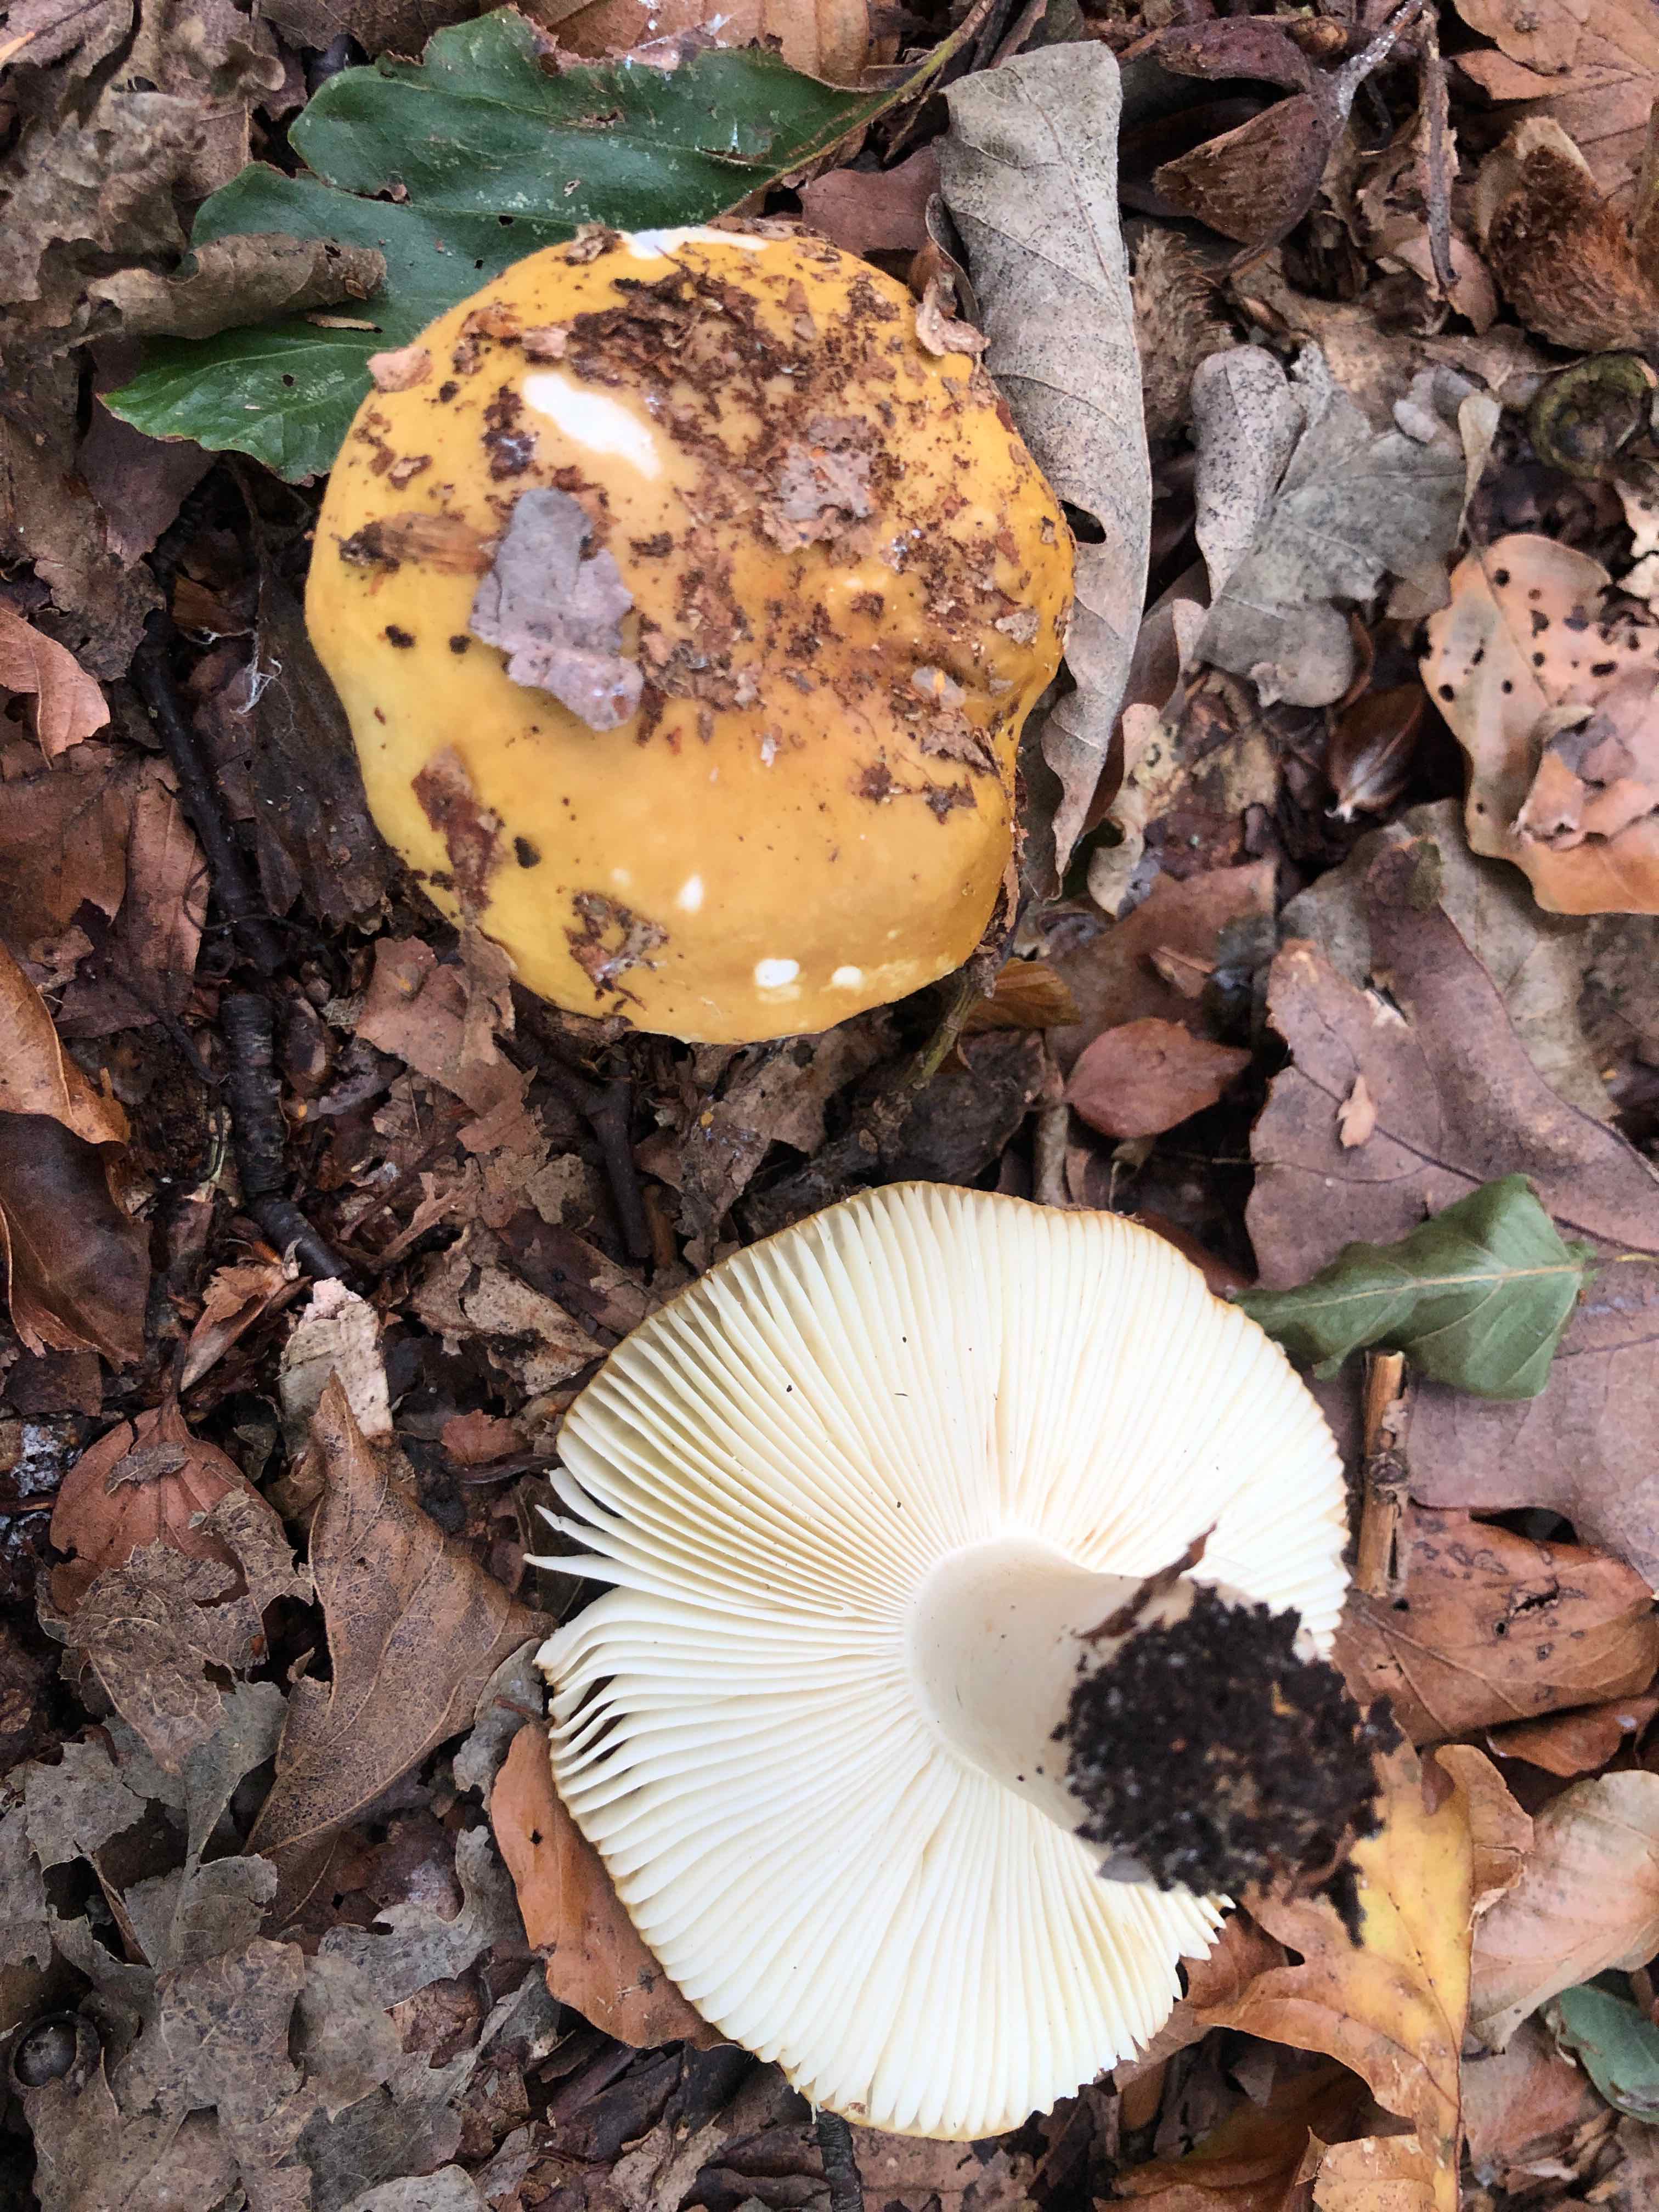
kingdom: Fungi
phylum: Basidiomycota
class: Agaricomycetes
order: Russulales
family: Russulaceae
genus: Russula
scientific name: Russula ochroleuca
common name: okkergul skørhat
